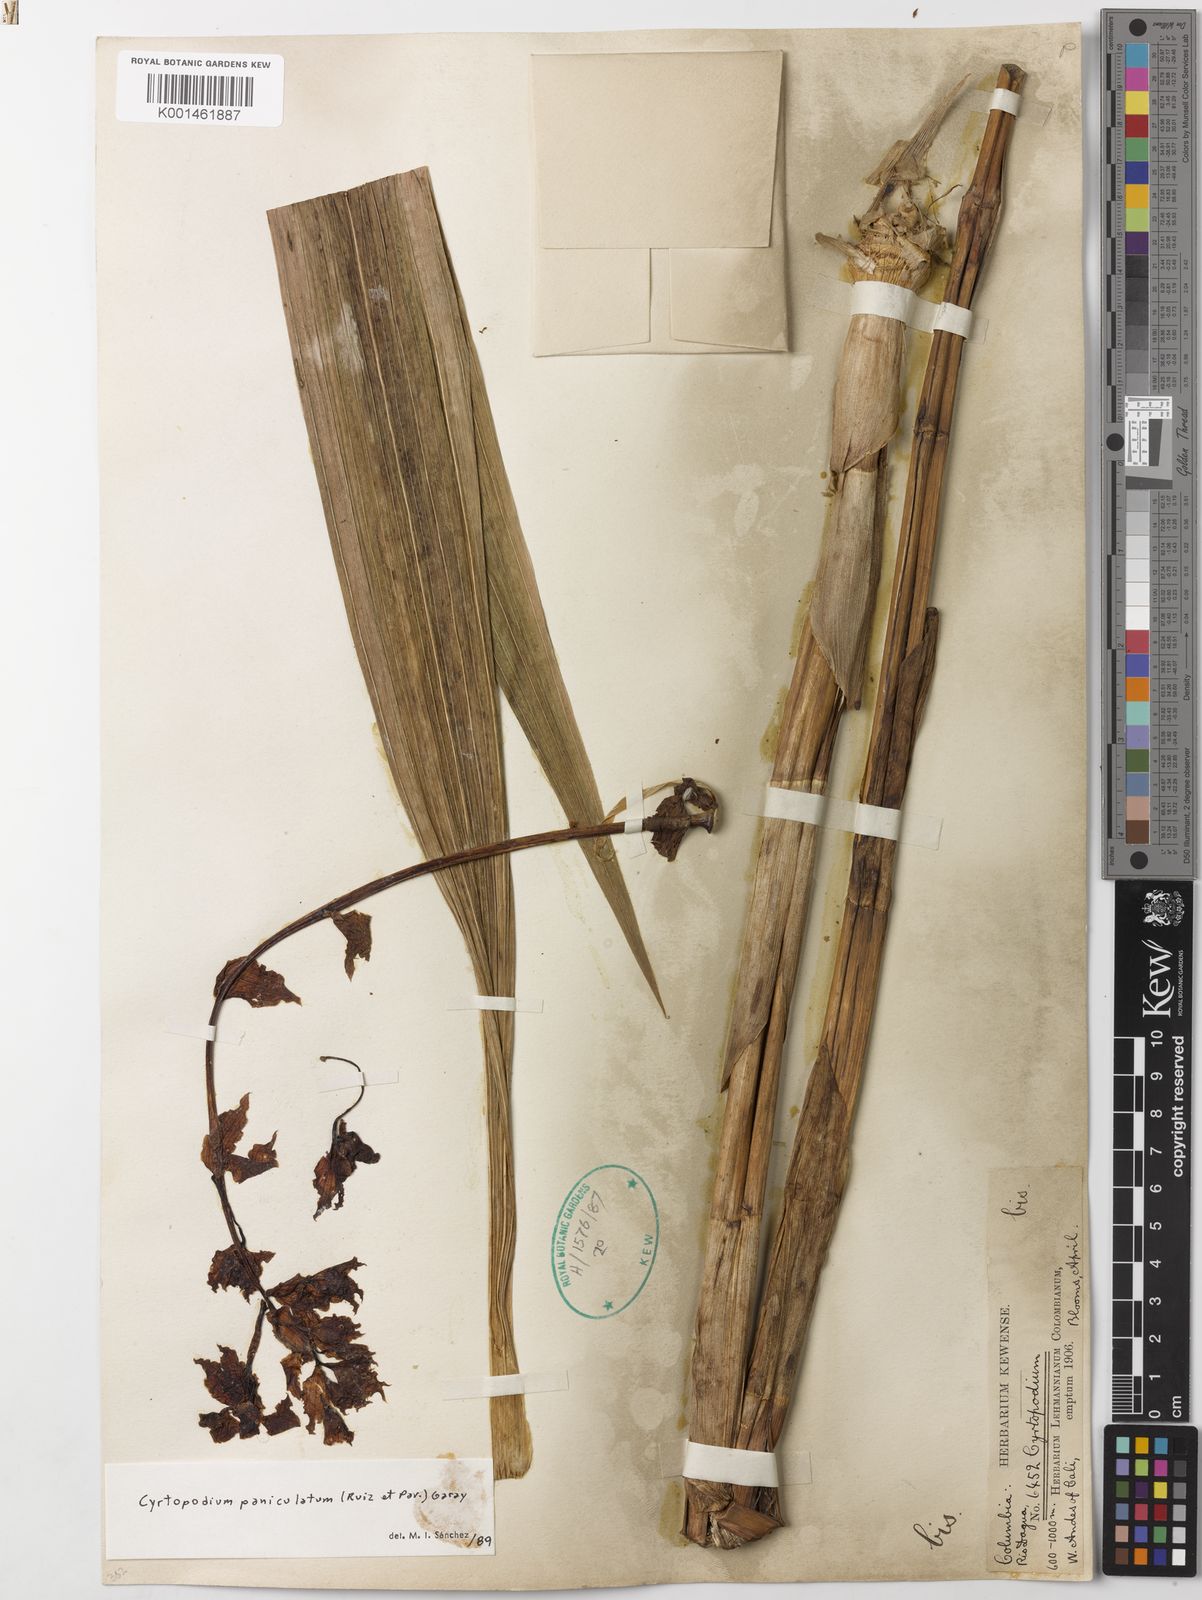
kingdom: Plantae
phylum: Tracheophyta
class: Liliopsida
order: Asparagales
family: Orchidaceae
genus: Cyrtopodium
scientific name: Cyrtopodium paniculatum
